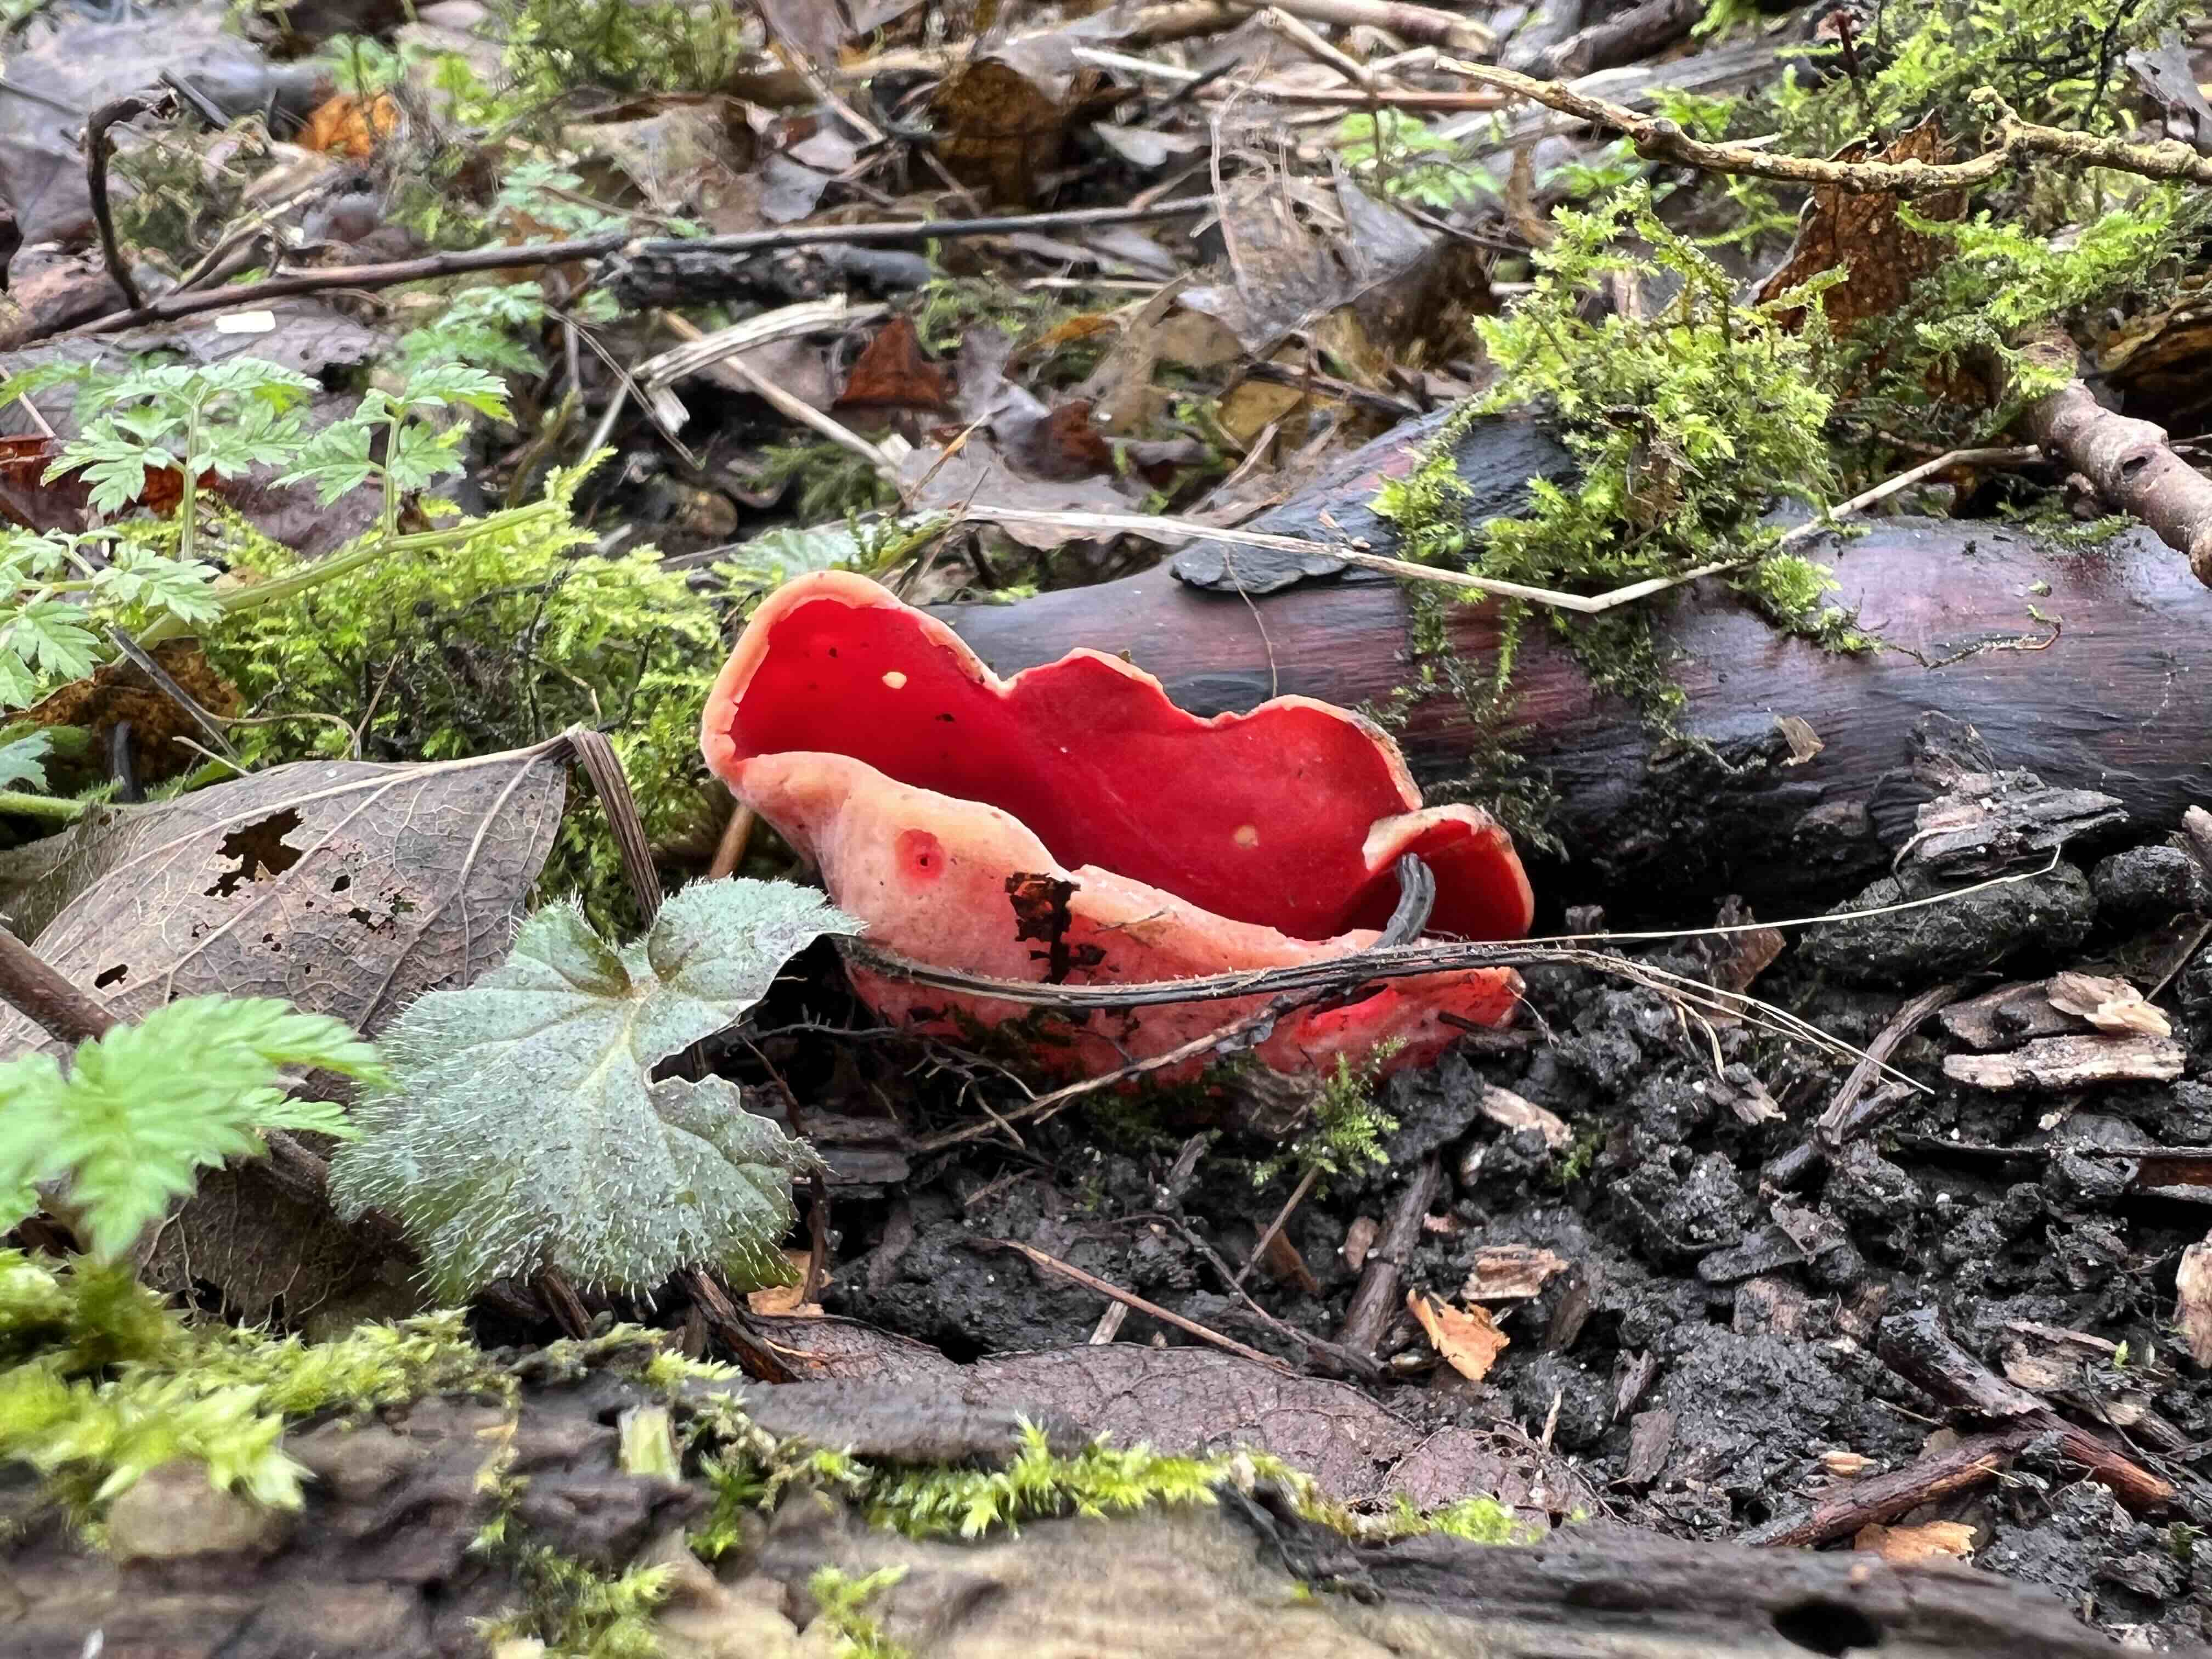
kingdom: Fungi
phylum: Ascomycota
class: Pezizomycetes
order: Pezizales
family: Sarcoscyphaceae
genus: Sarcoscypha
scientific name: Sarcoscypha austriaca
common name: krølhåret pragtbæger
